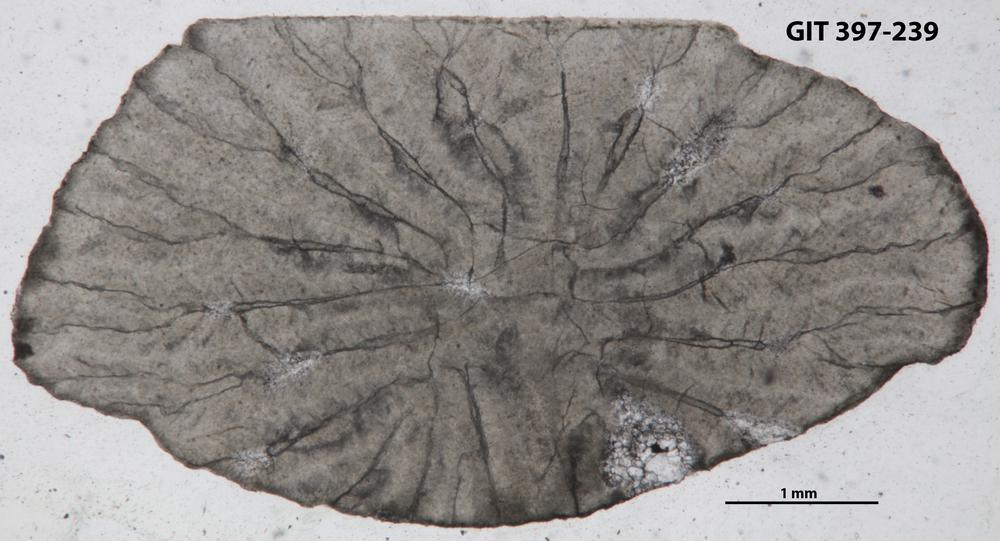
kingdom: Animalia
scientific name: Animalia
